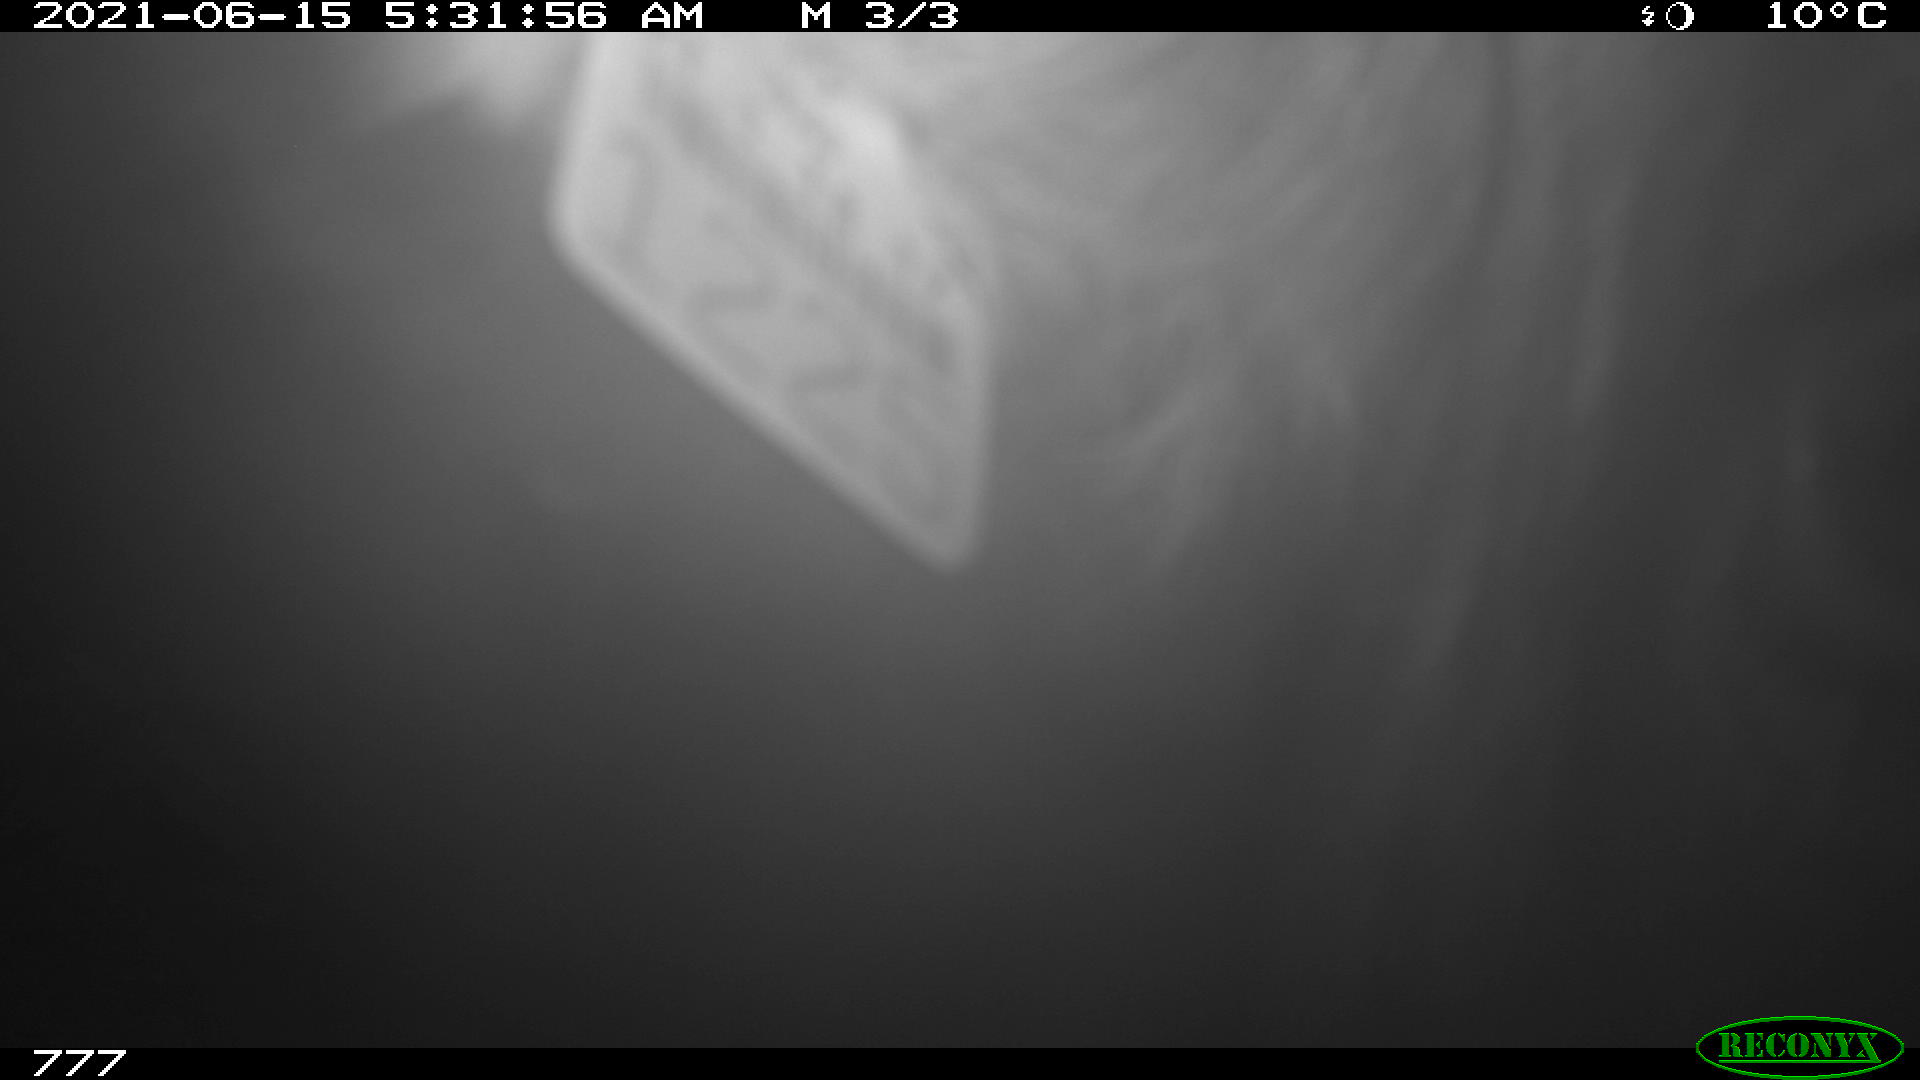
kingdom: Animalia
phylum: Chordata
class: Mammalia
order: Artiodactyla
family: Bovidae
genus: Bos
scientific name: Bos taurus
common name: Domesticated cattle
